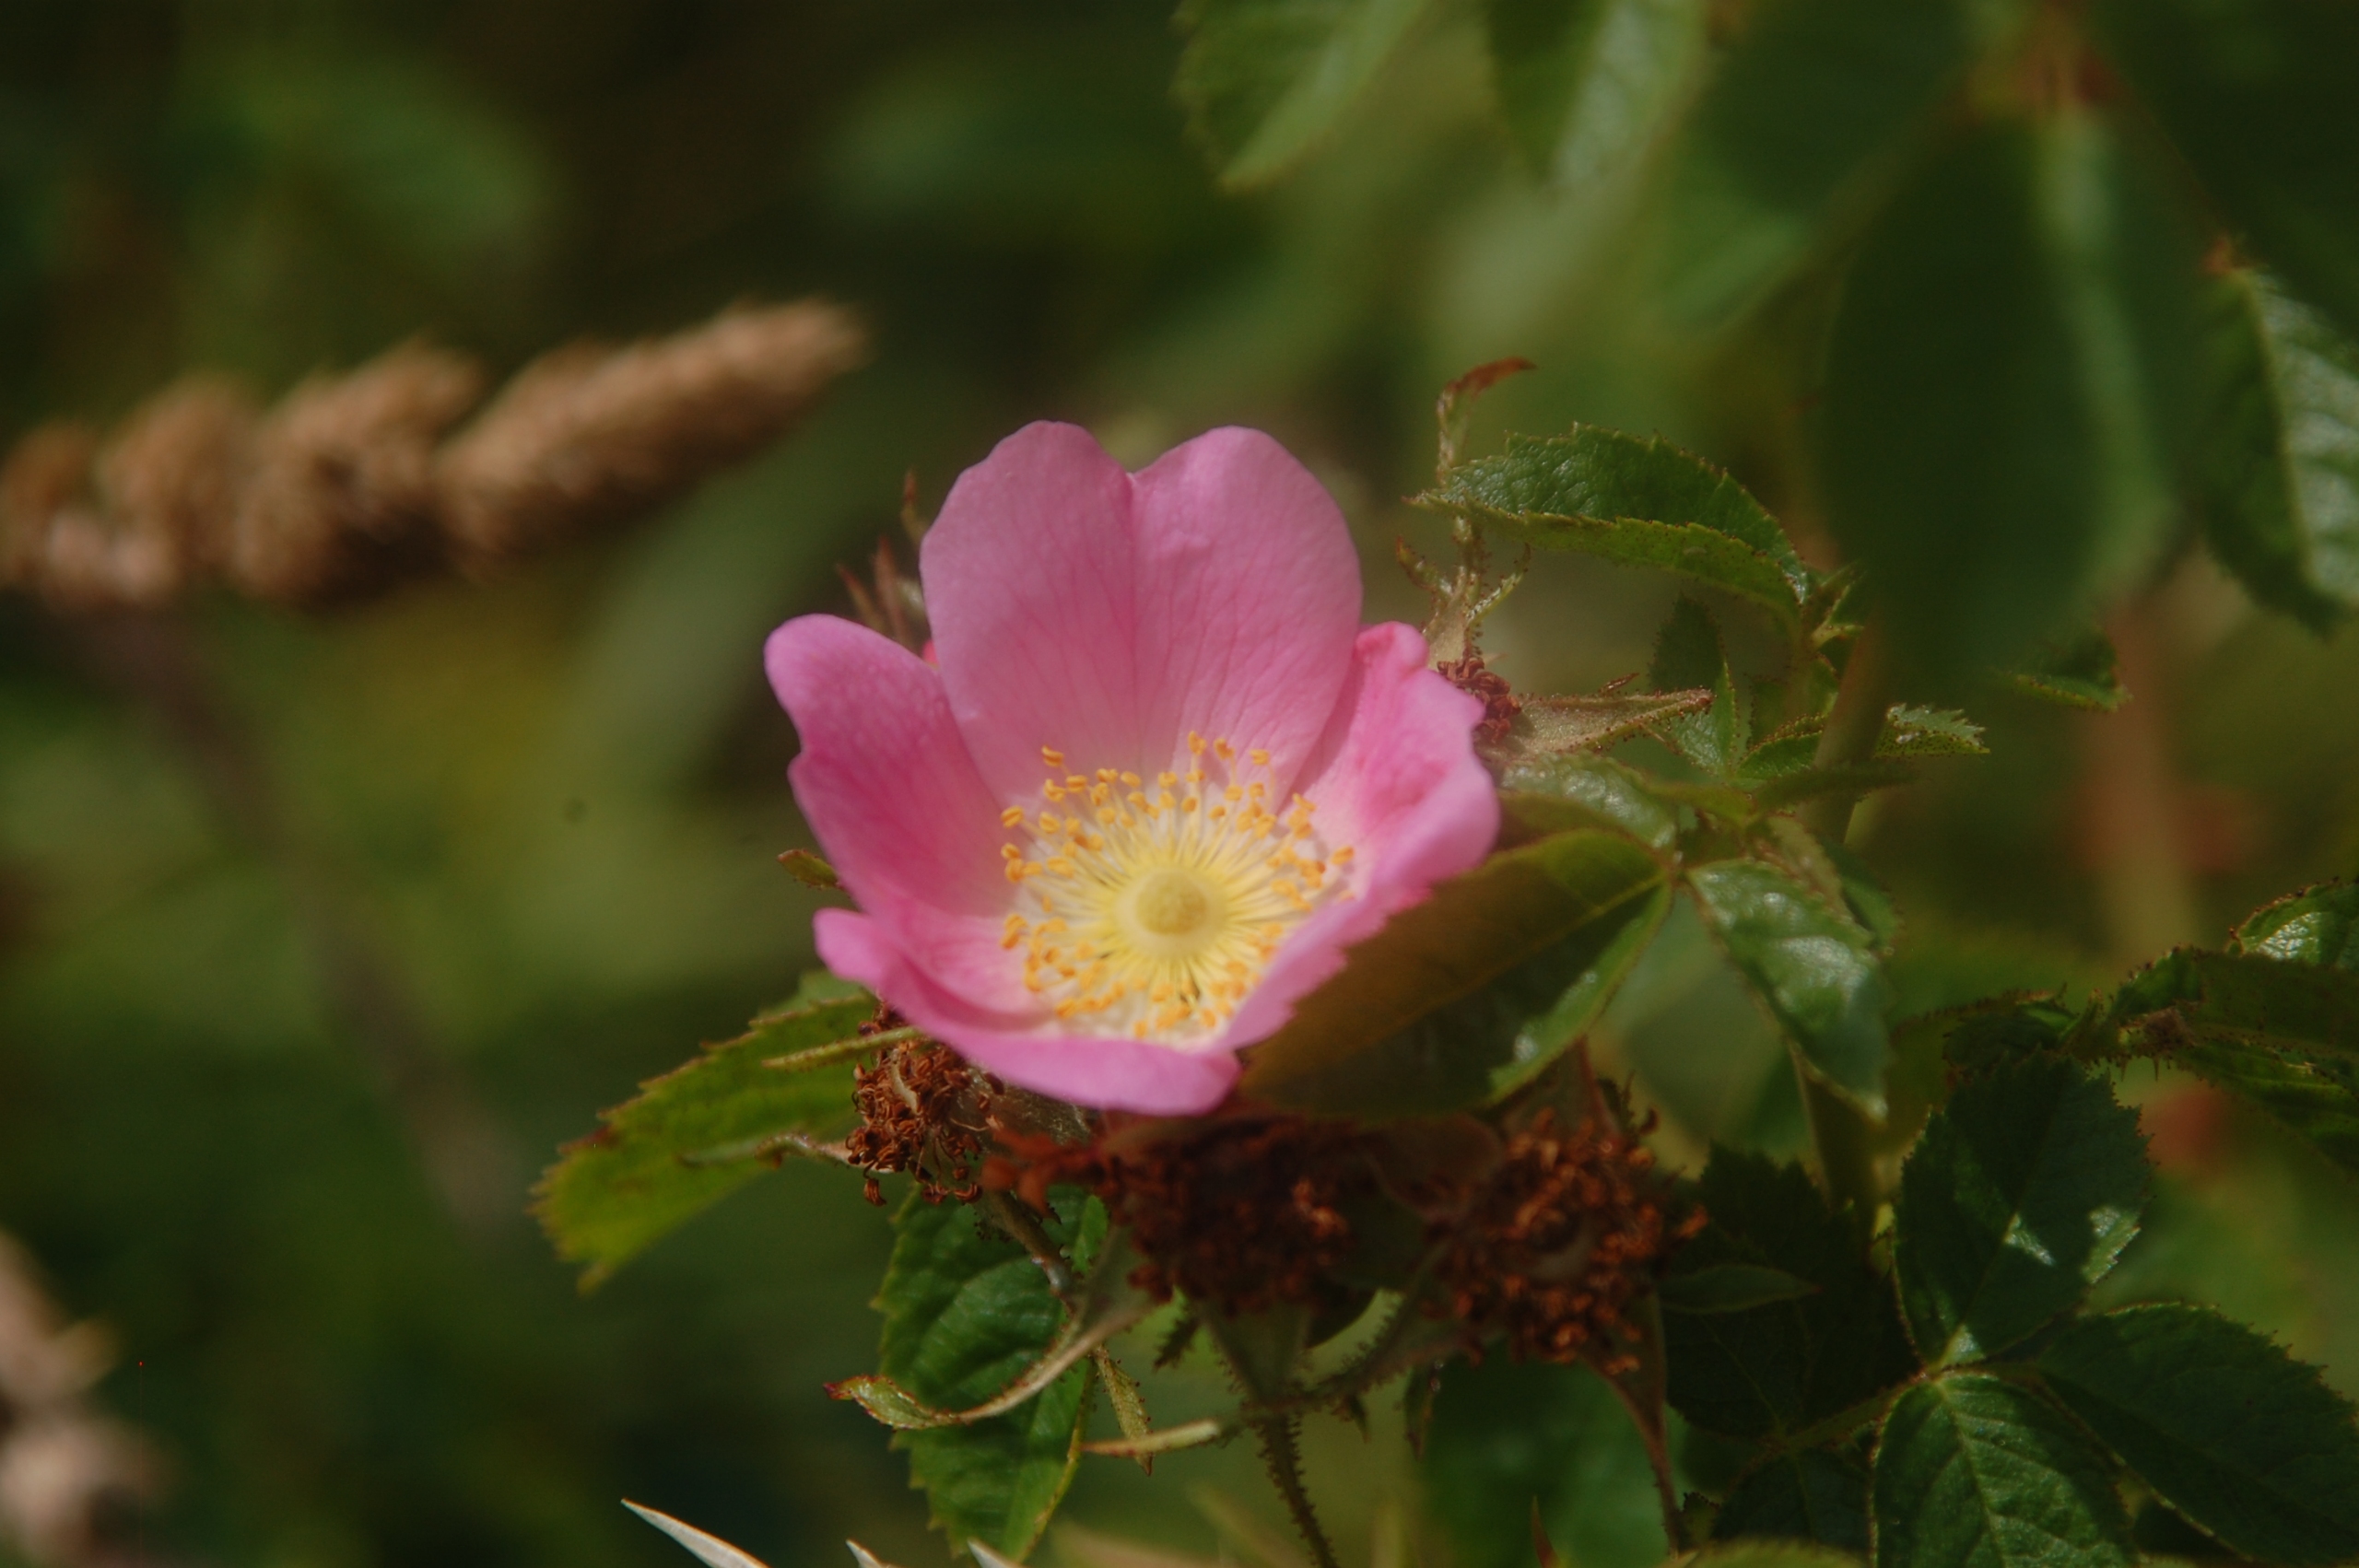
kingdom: Plantae
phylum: Tracheophyta
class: Magnoliopsida
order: Rosales
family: Rosaceae
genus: Rosa
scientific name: Rosa rubiginosa
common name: Æble-rose
